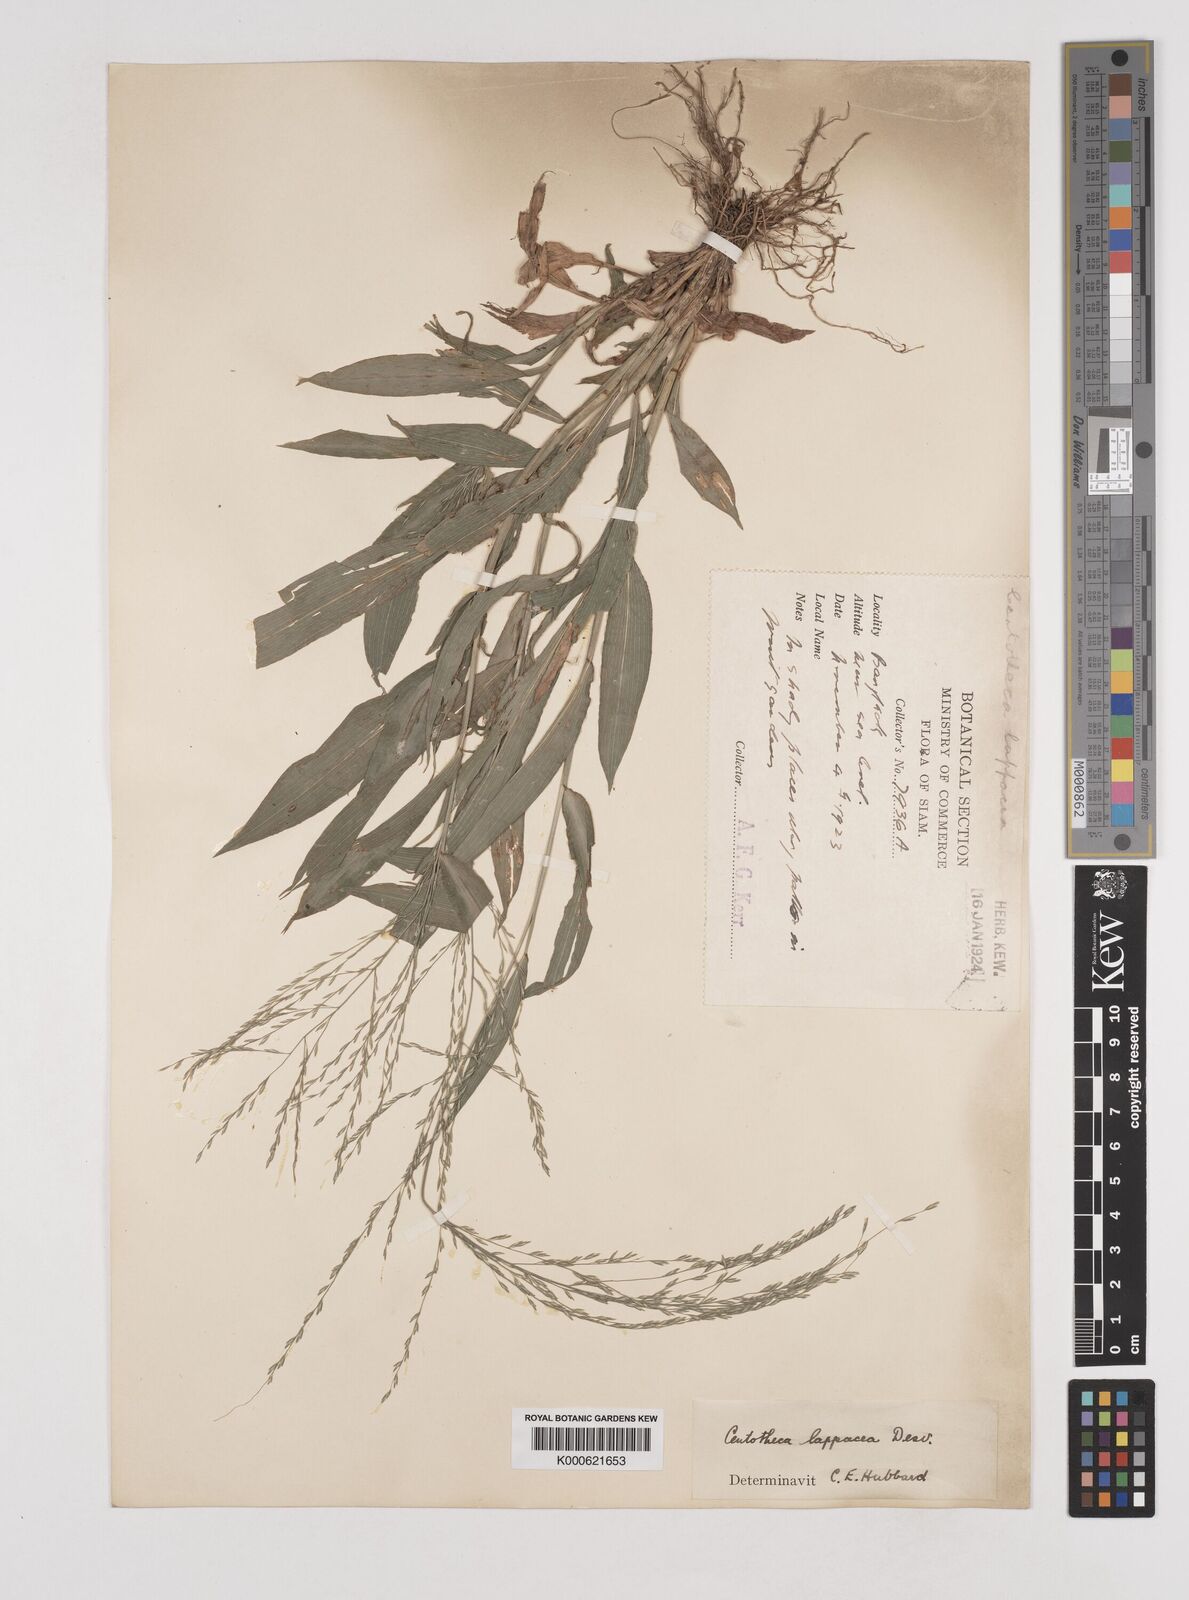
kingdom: Plantae
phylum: Tracheophyta
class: Liliopsida
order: Poales
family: Poaceae
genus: Centotheca
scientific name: Centotheca lappacea
